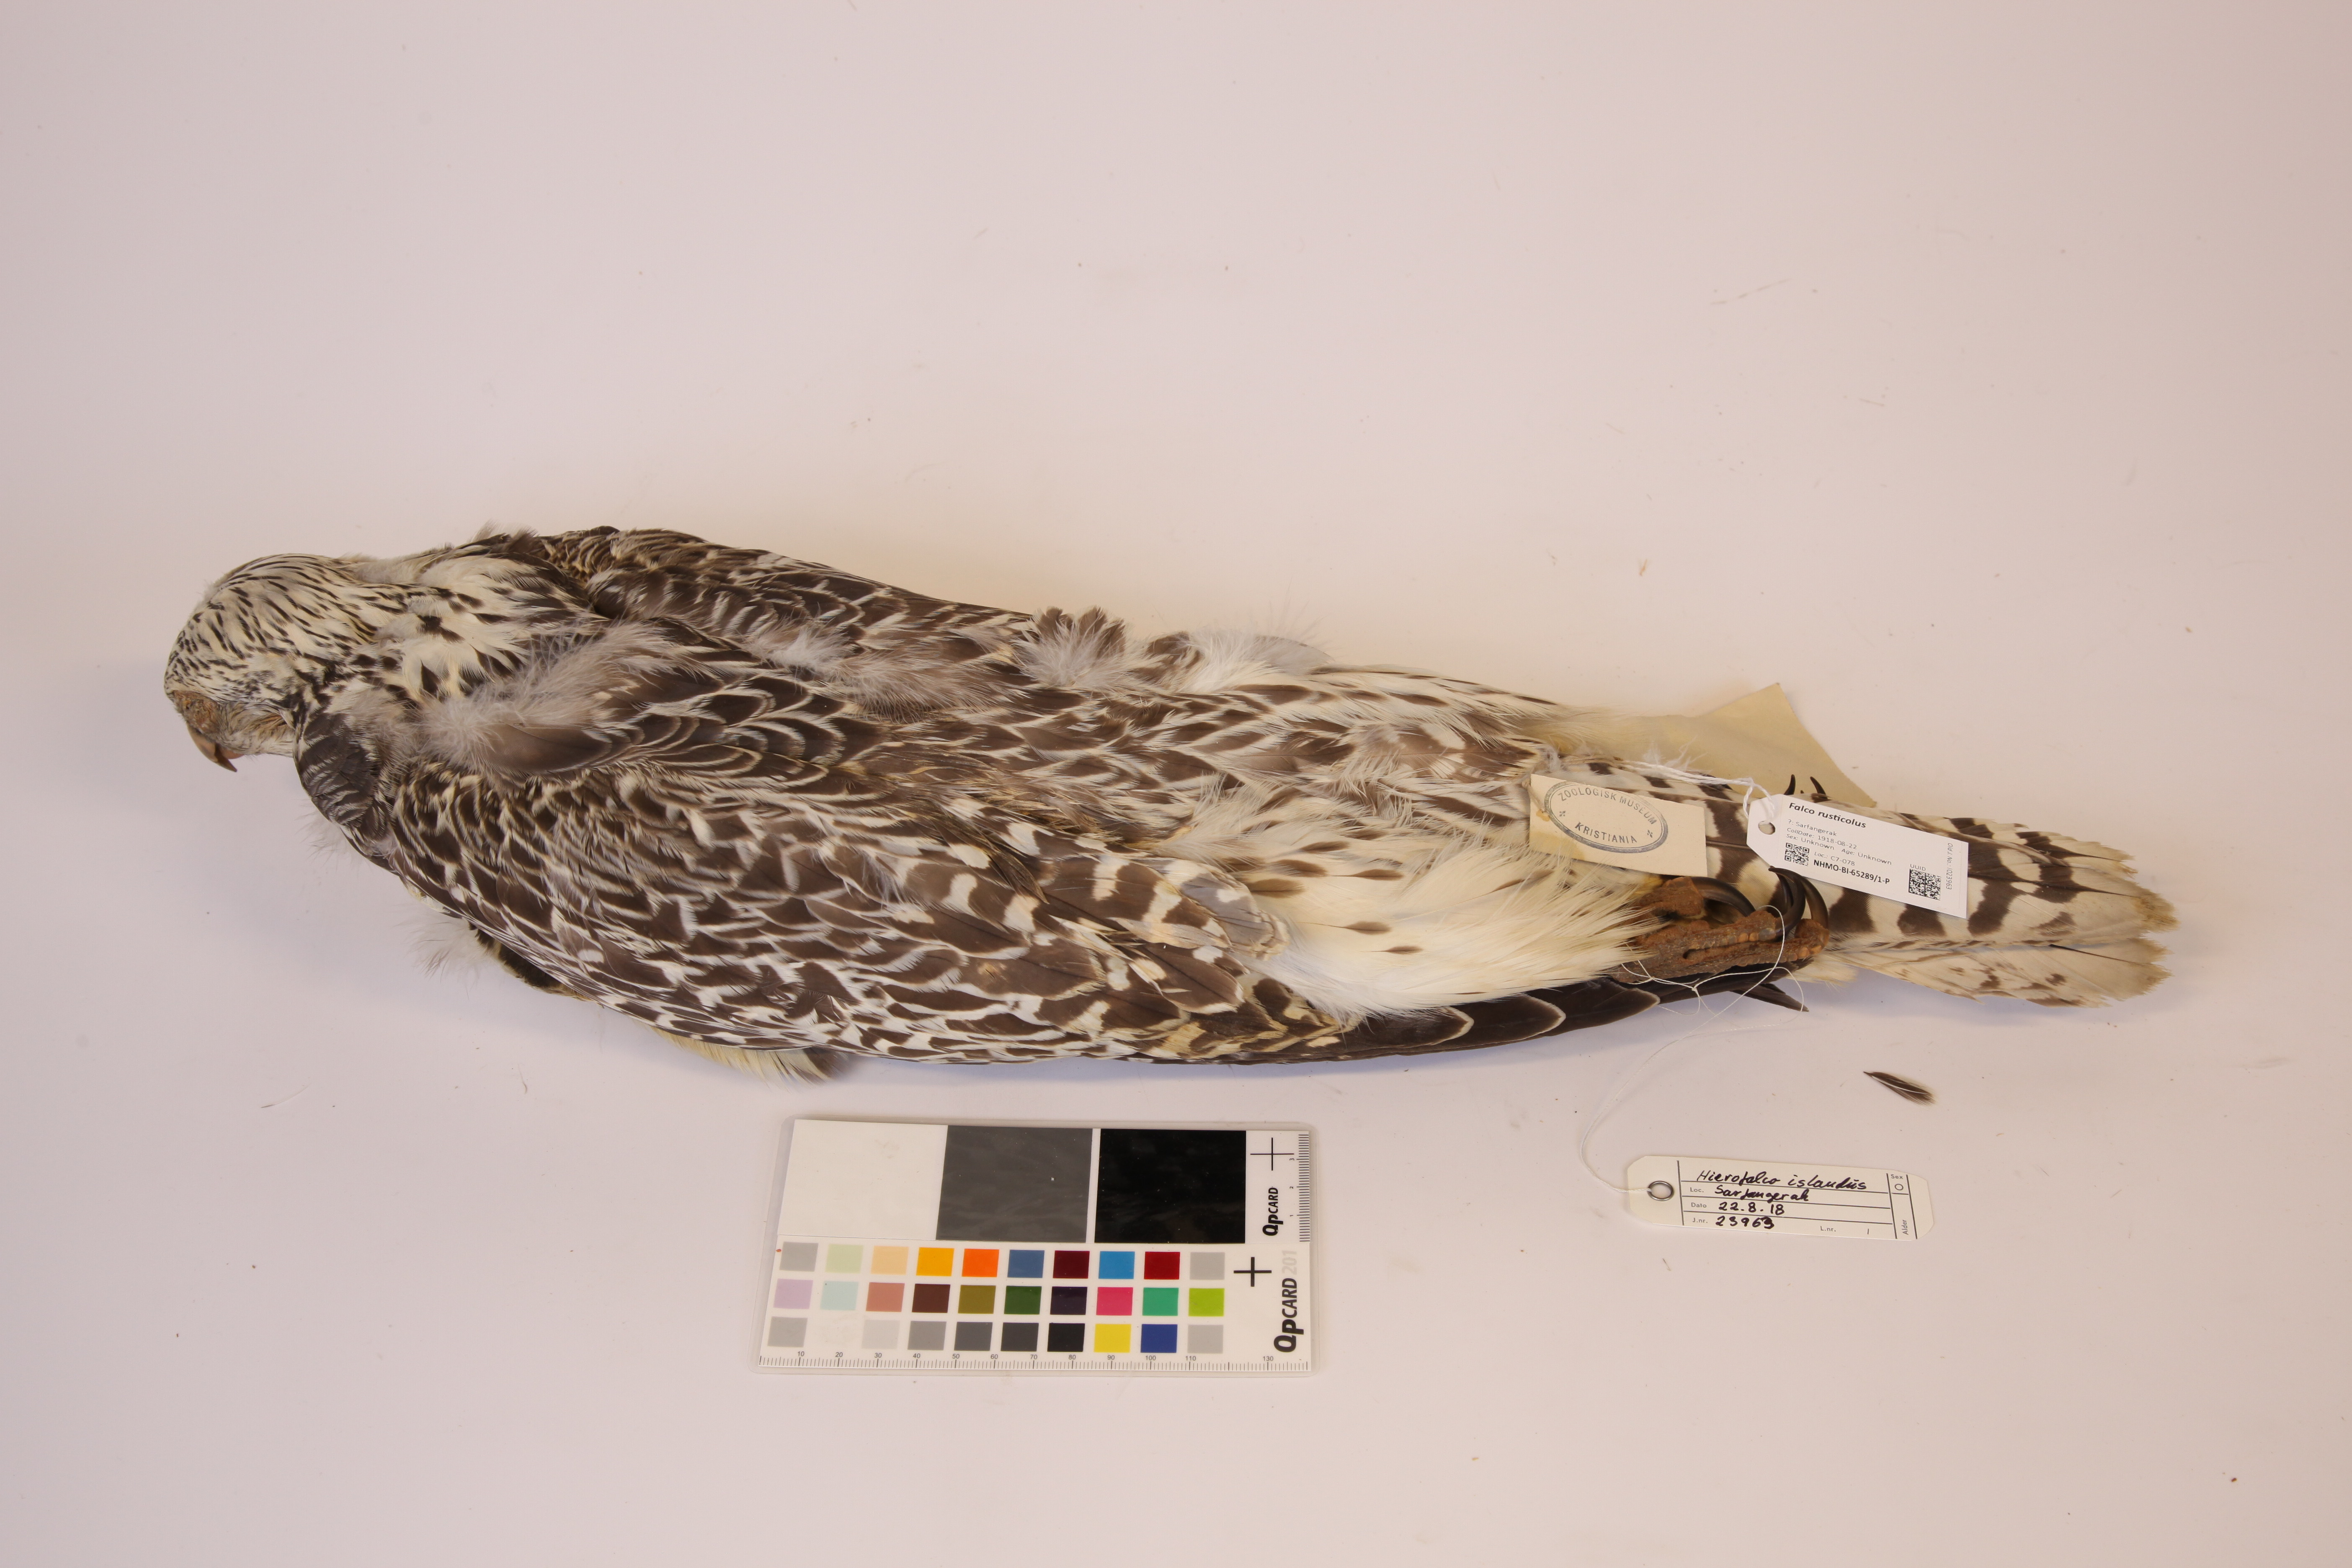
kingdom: Animalia
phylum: Chordata
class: Aves
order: Falconiformes
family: Falconidae
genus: Falco
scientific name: Falco rusticolus
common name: Gyrfalcon
